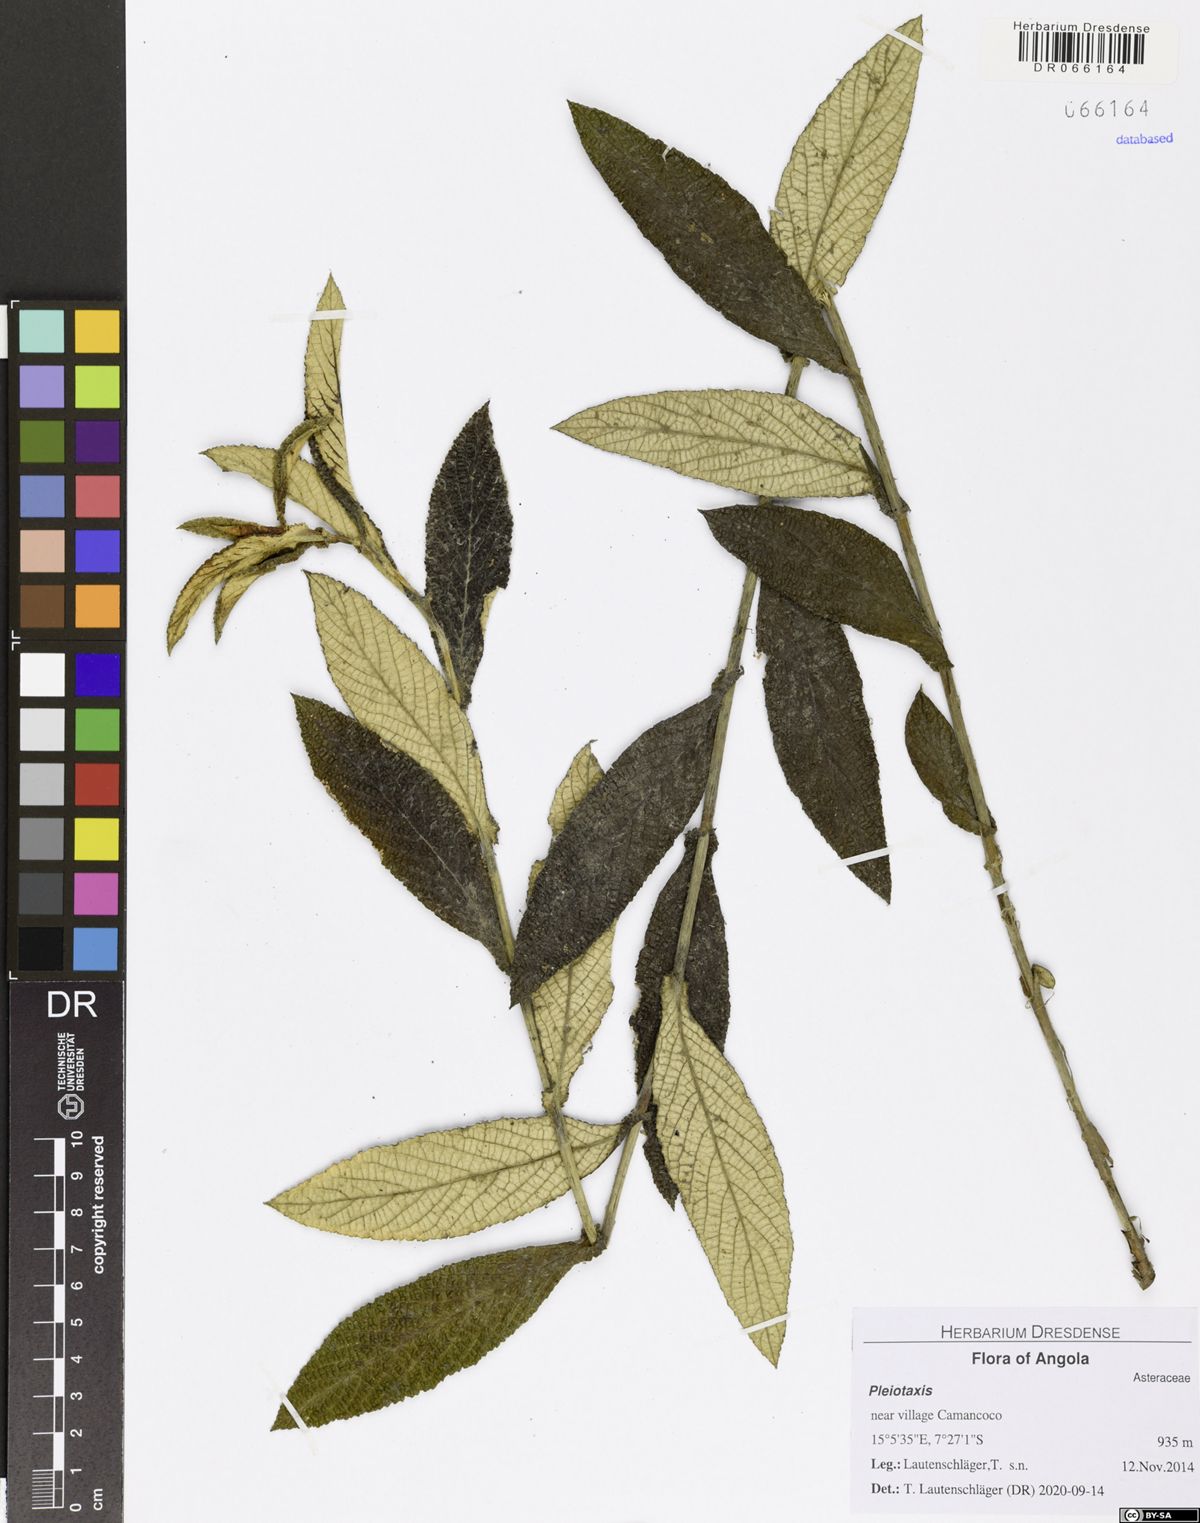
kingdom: Plantae
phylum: Tracheophyta
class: Magnoliopsida
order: Asterales
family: Asteraceae
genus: Pleiotaxis
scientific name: Pleiotaxis rugosa
